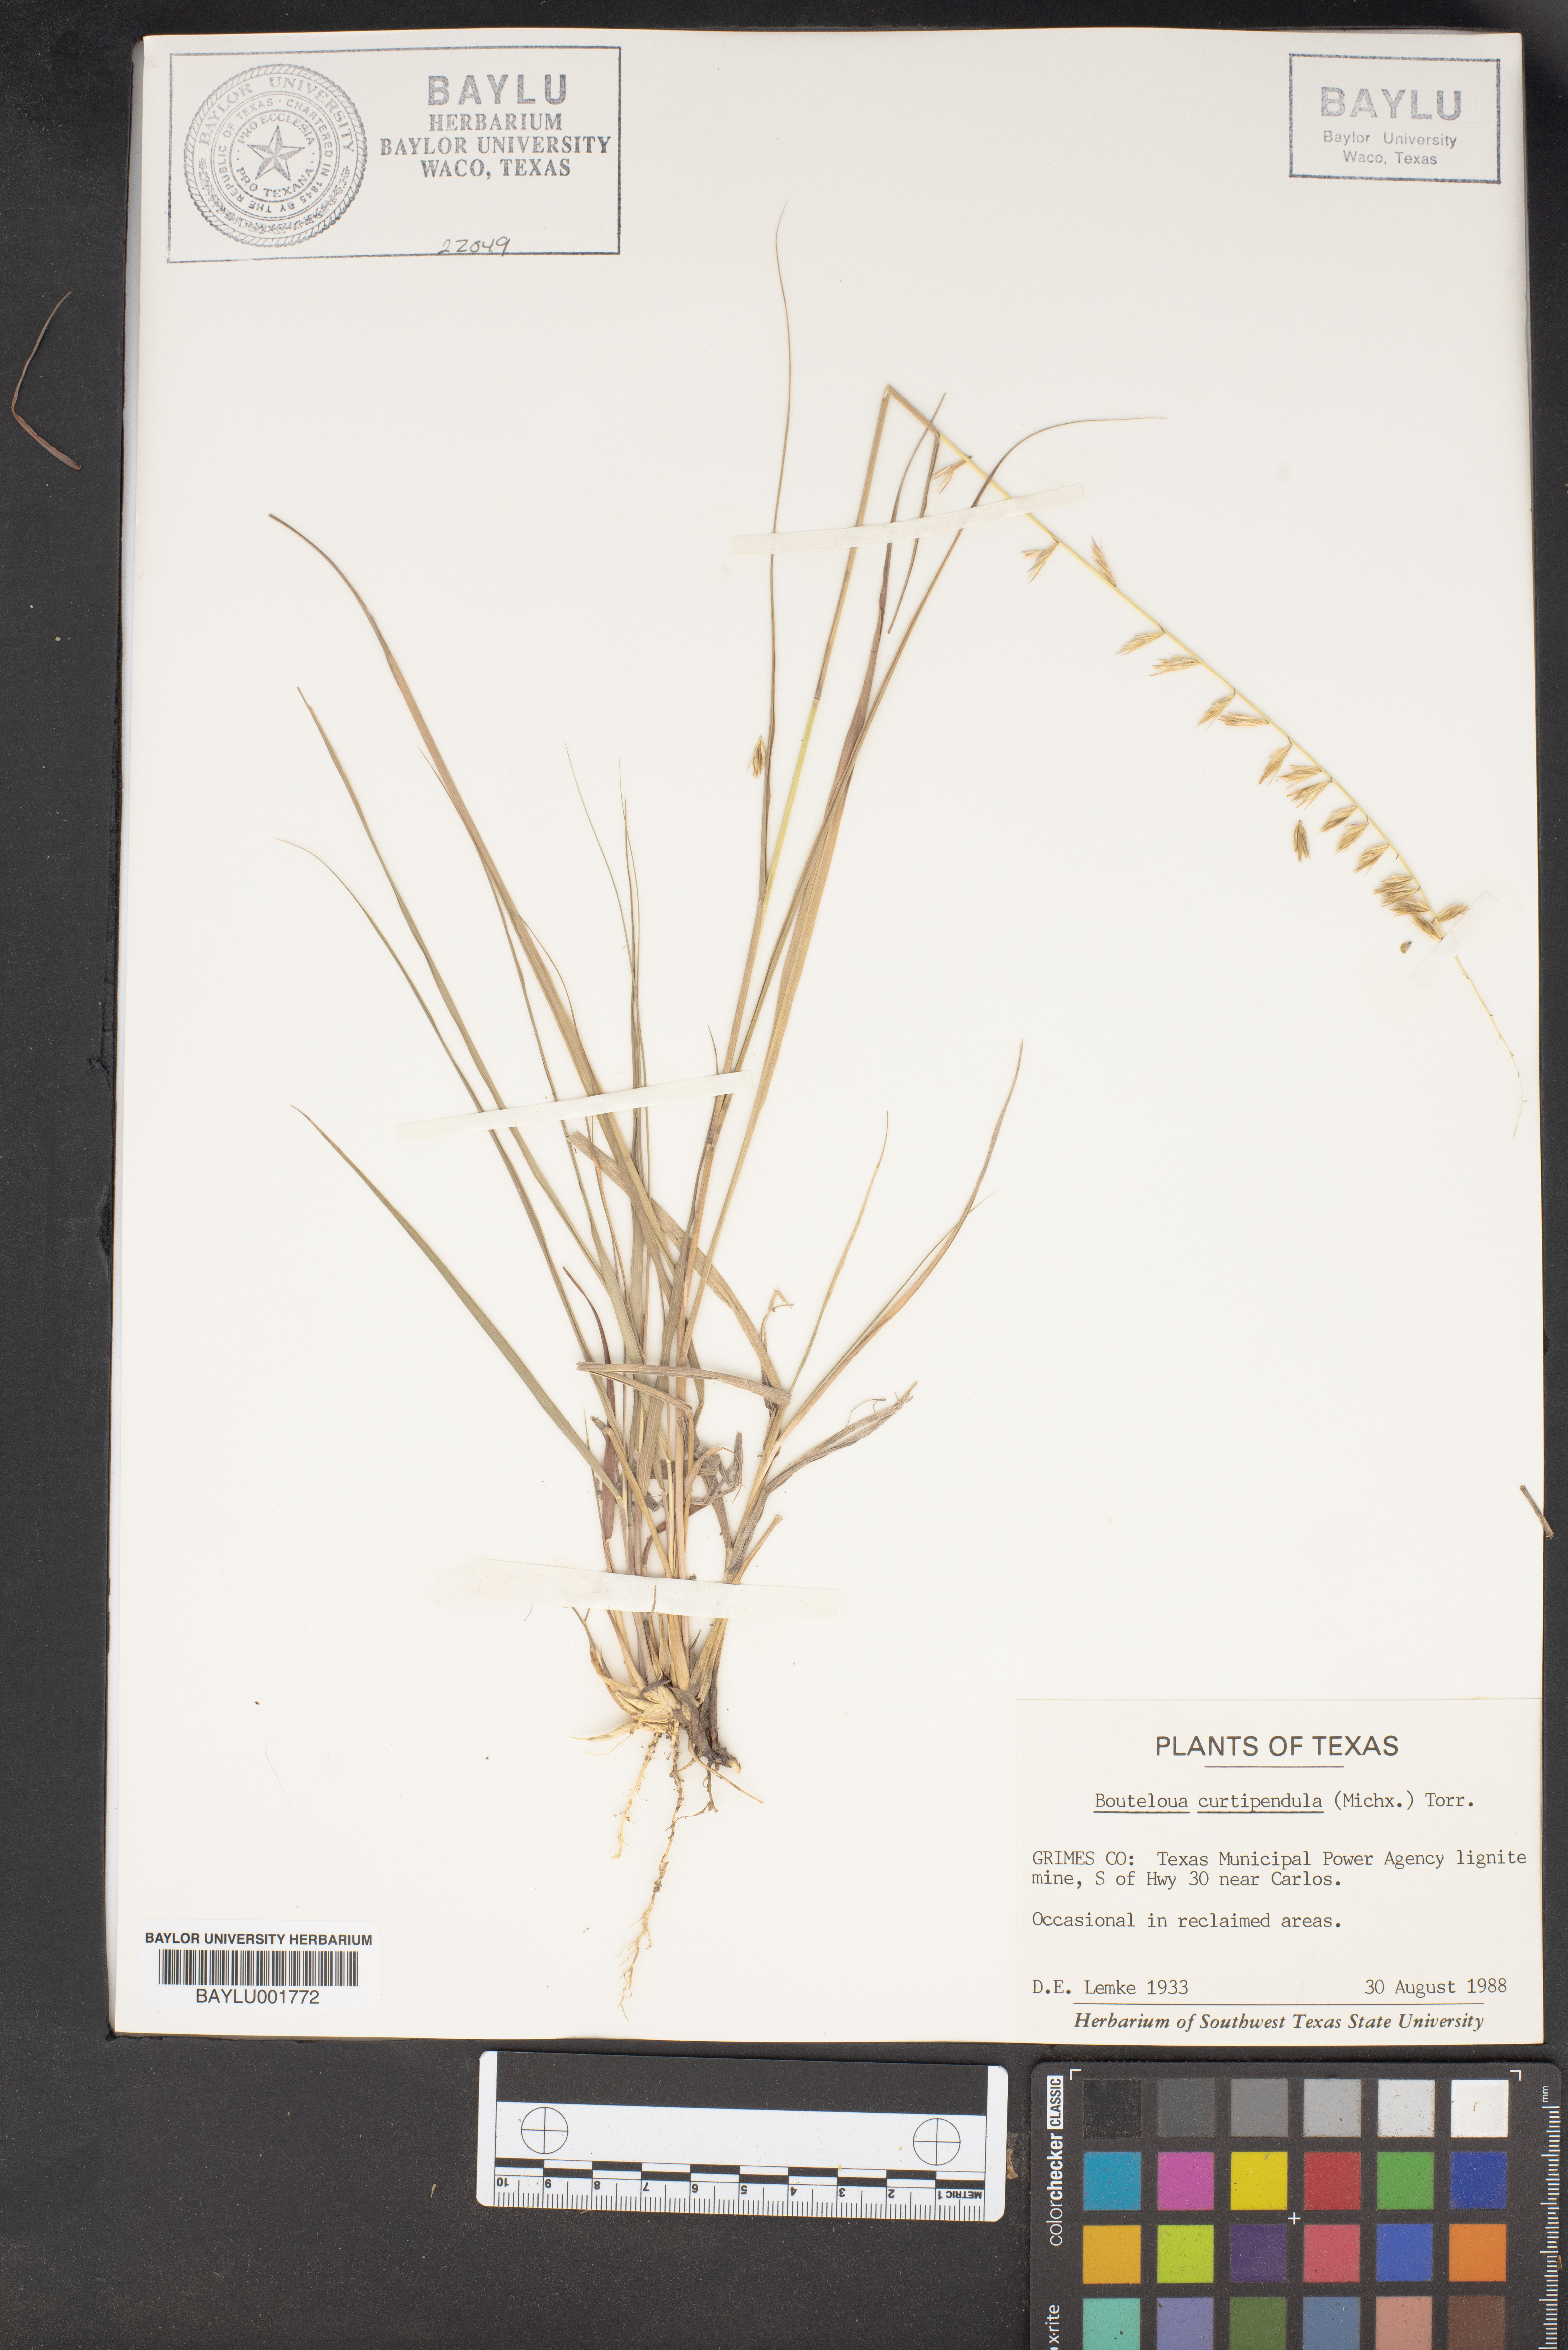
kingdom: Plantae
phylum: Tracheophyta
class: Liliopsida
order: Poales
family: Poaceae
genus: Bouteloua
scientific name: Bouteloua curtipendula
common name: Side-oats grama
